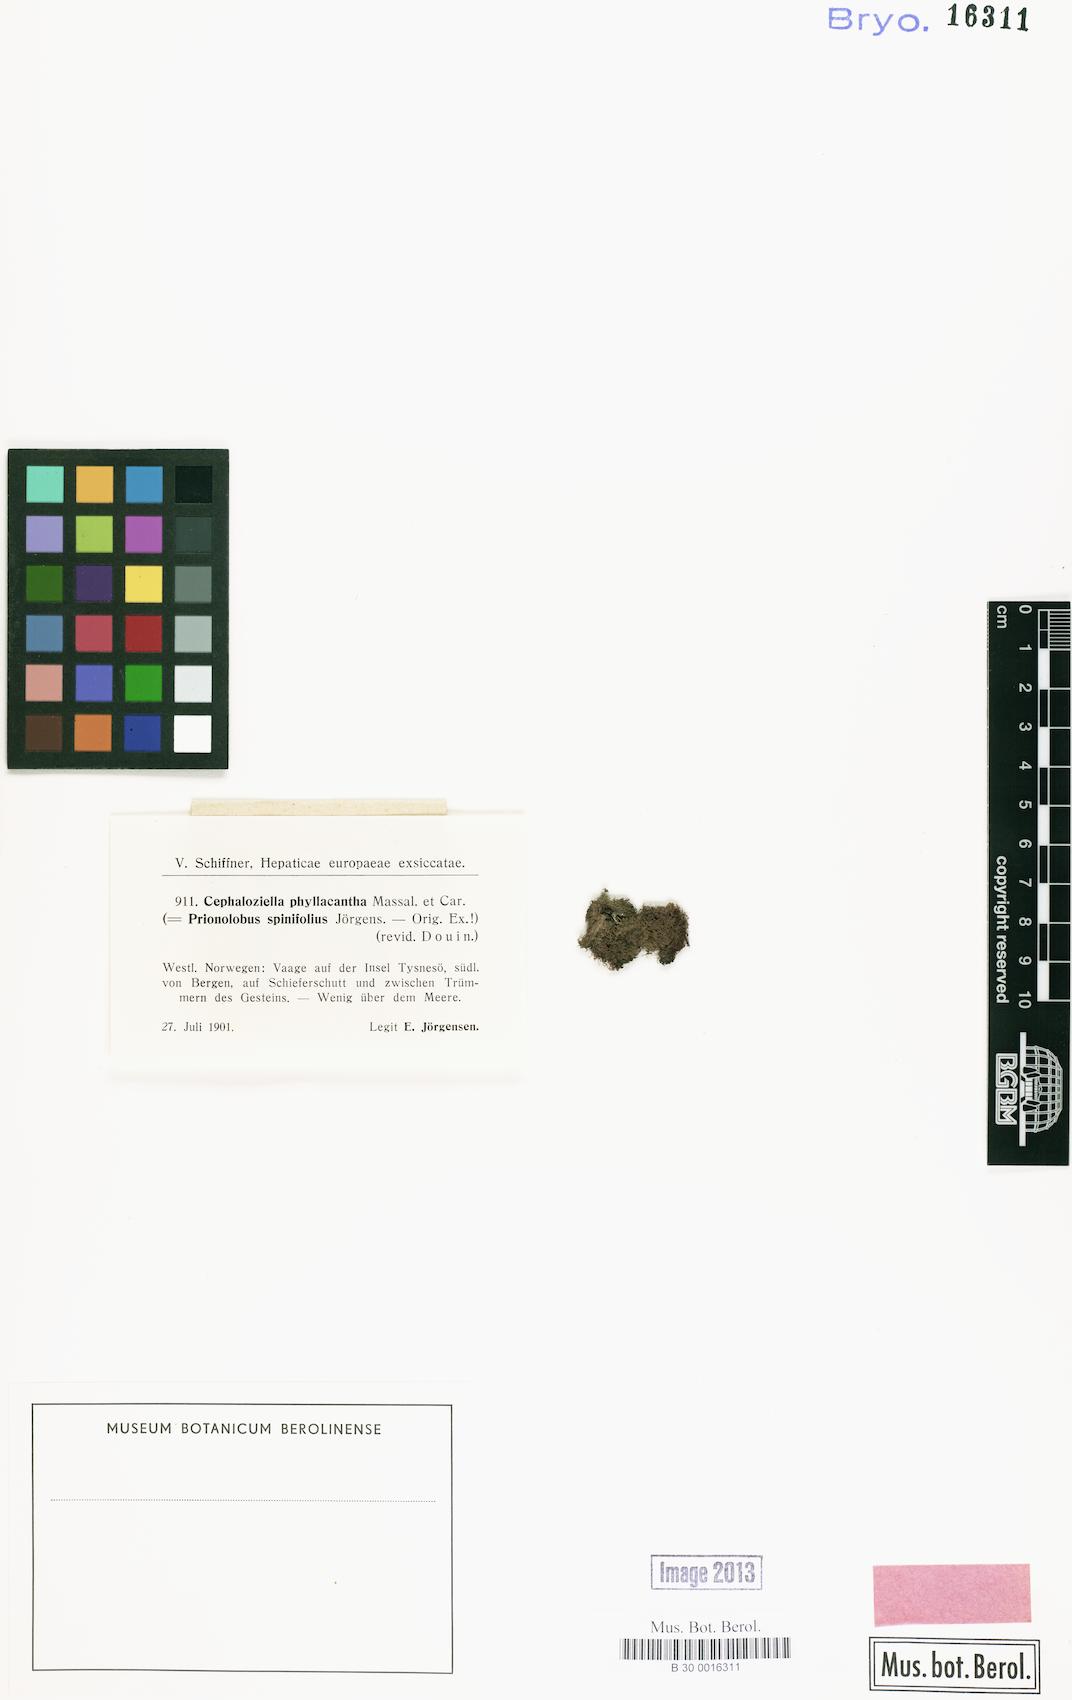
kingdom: Plantae
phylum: Marchantiophyta
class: Jungermanniopsida
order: Jungermanniales
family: Cephaloziellaceae
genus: Cephaloziella
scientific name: Cephaloziella phyllacantha
